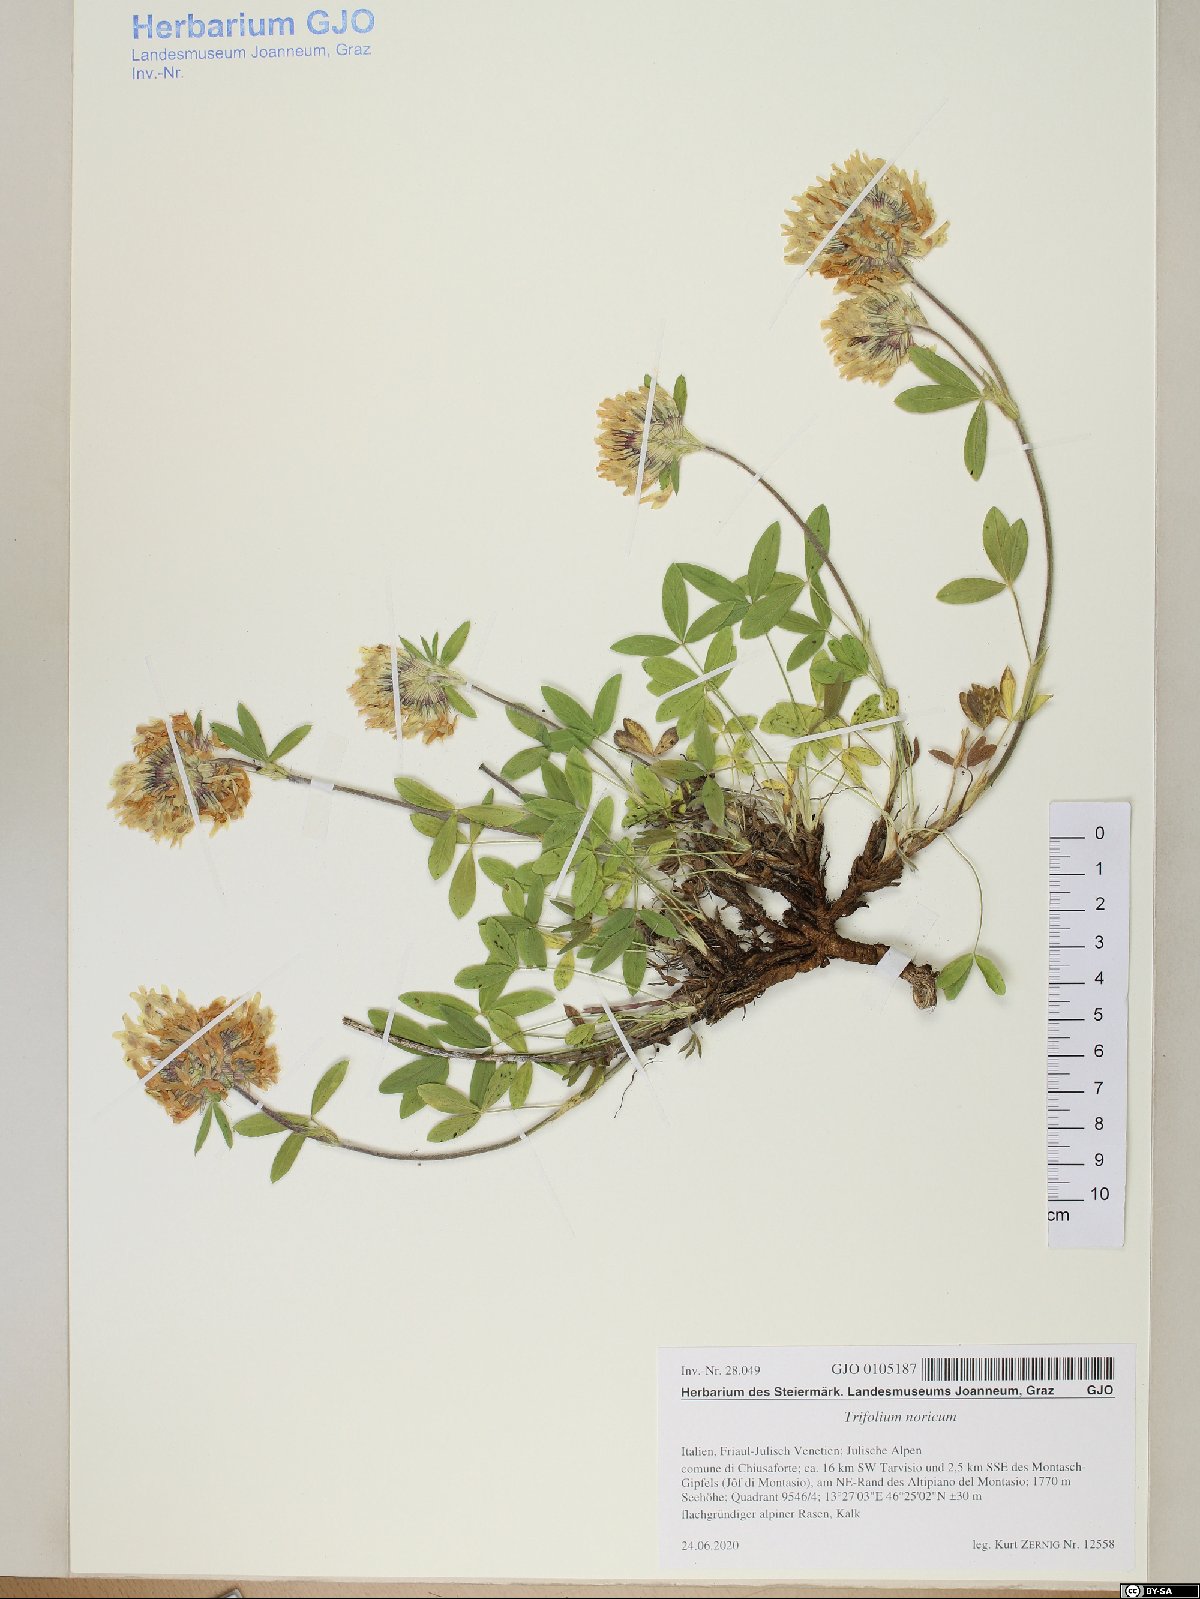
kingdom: Plantae
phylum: Tracheophyta
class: Magnoliopsida
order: Fabales
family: Fabaceae
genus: Trifolium
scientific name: Trifolium noricum
